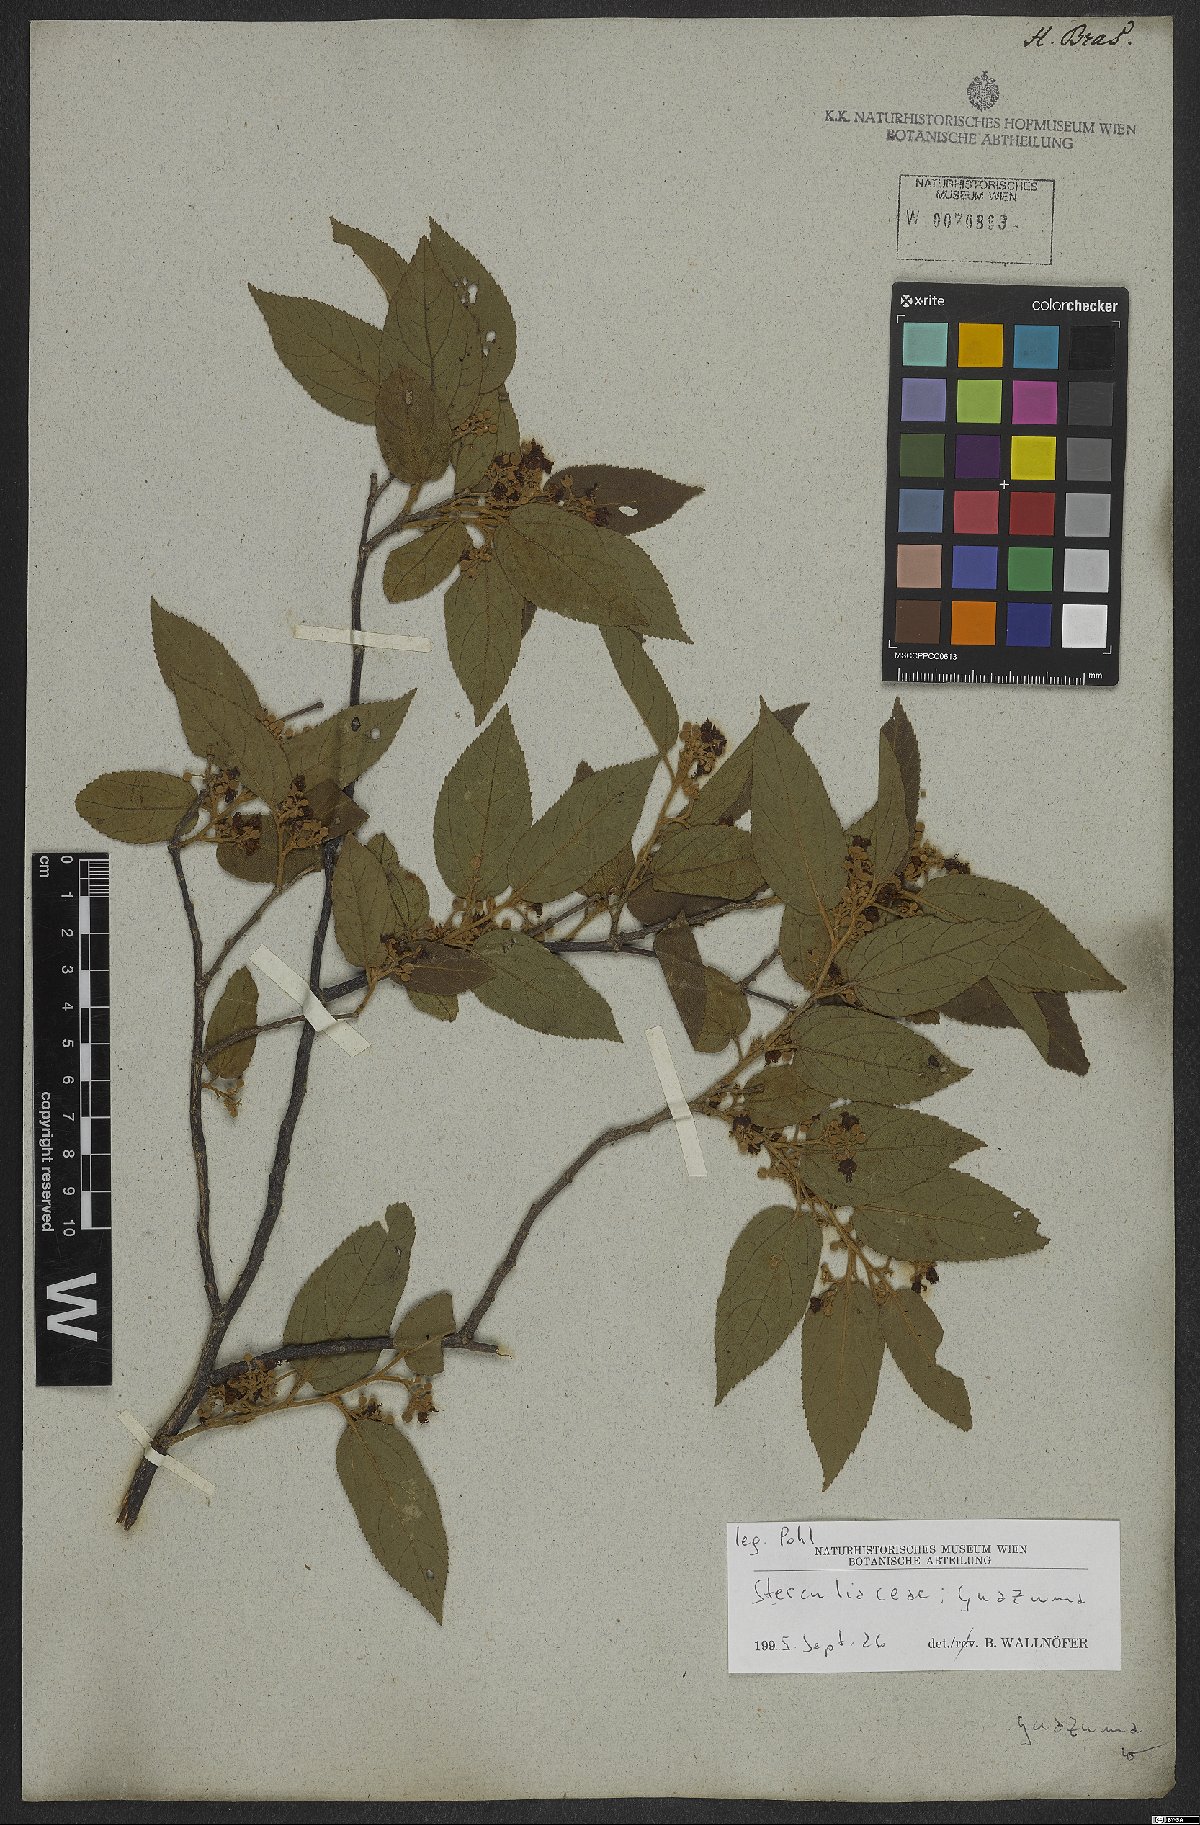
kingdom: Plantae
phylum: Tracheophyta
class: Magnoliopsida
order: Malvales
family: Malvaceae
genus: Guazuma
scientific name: Guazuma
